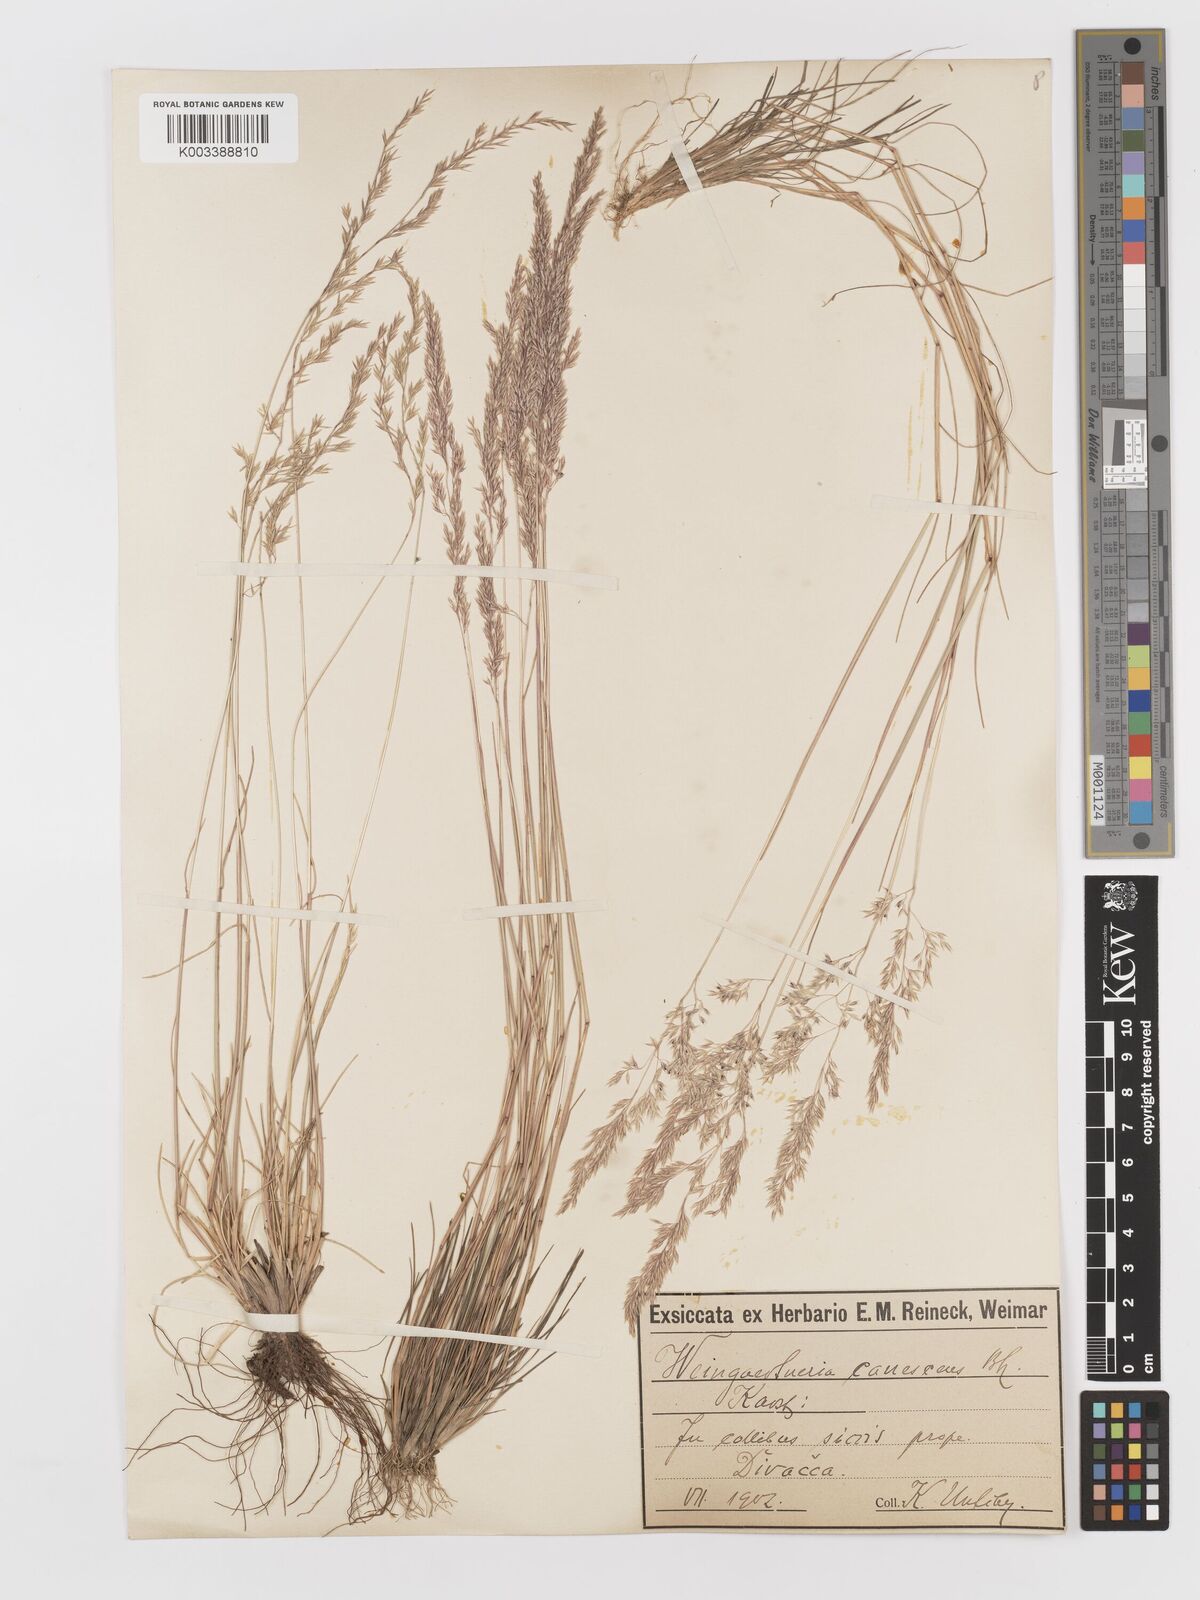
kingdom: Plantae
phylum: Tracheophyta
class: Liliopsida
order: Poales
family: Poaceae
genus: Corynephorus
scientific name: Corynephorus canescens
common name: Grey hair-grass
